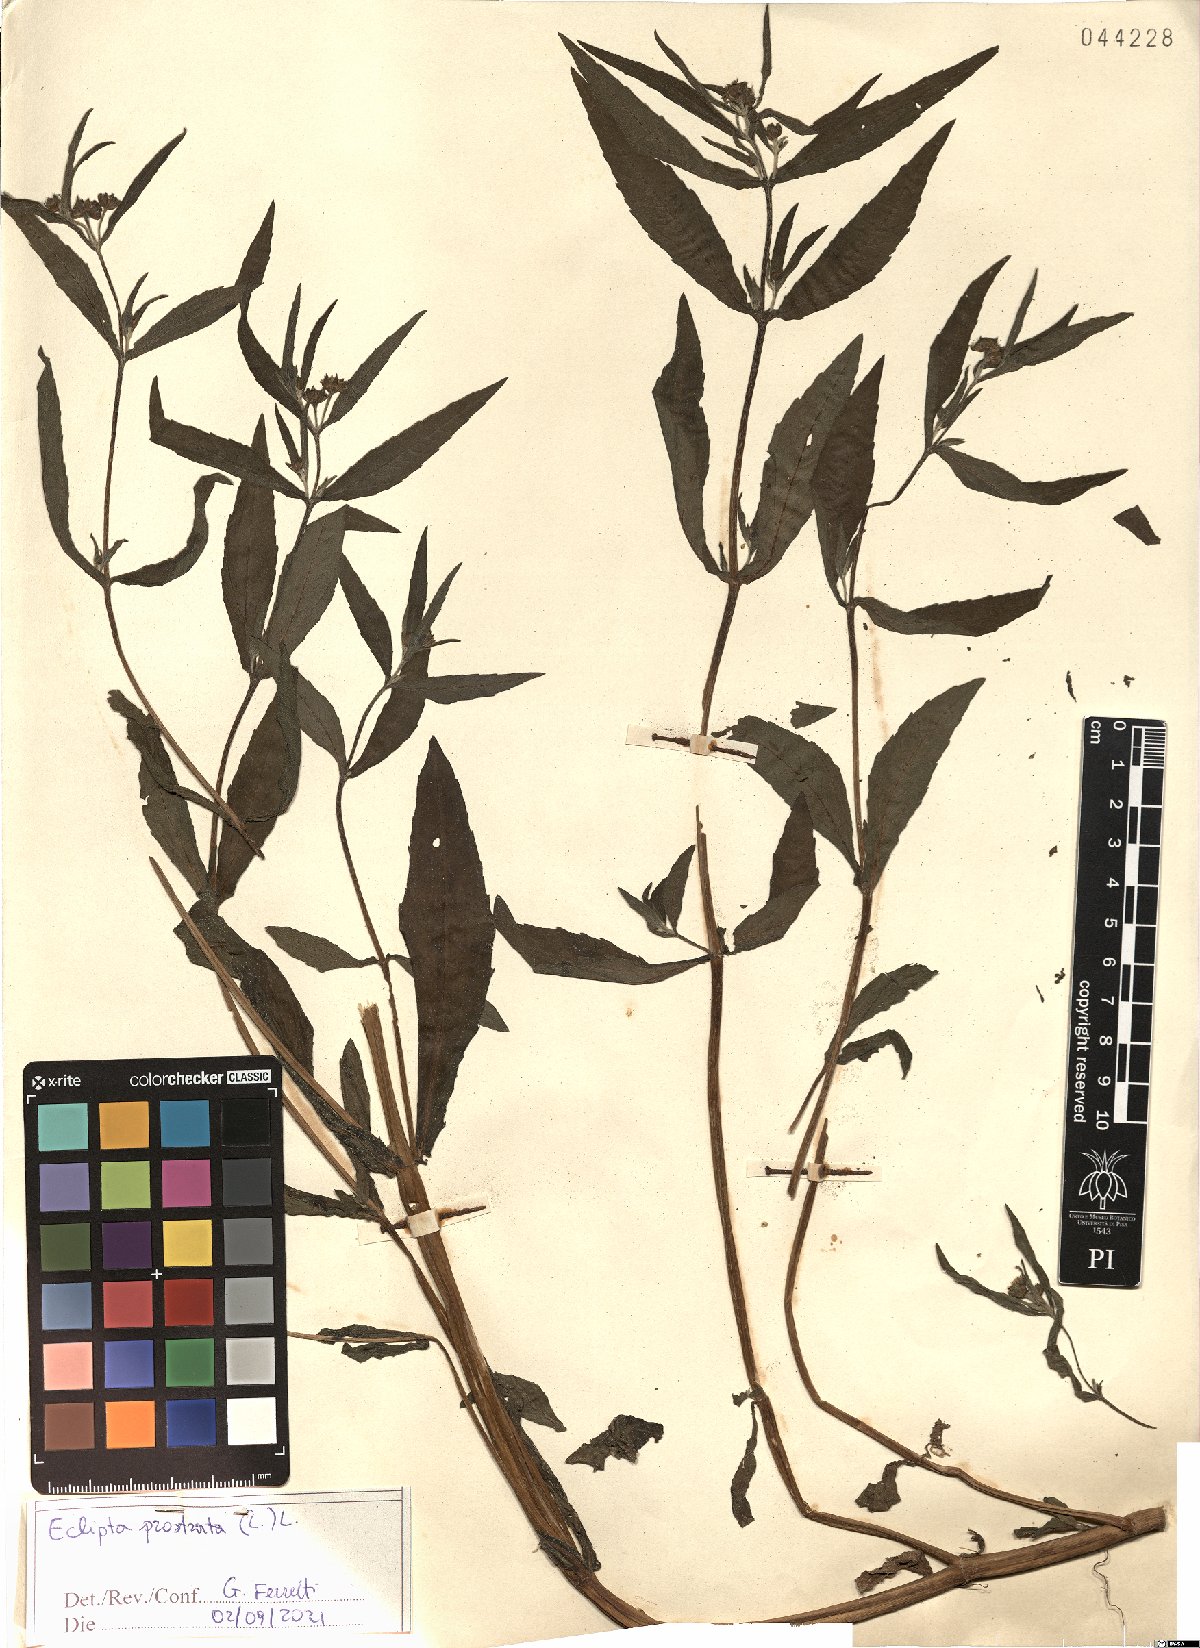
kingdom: Plantae
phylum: Tracheophyta
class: Magnoliopsida
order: Asterales
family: Asteraceae
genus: Eclipta
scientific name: Eclipta prostrata
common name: False daisy
